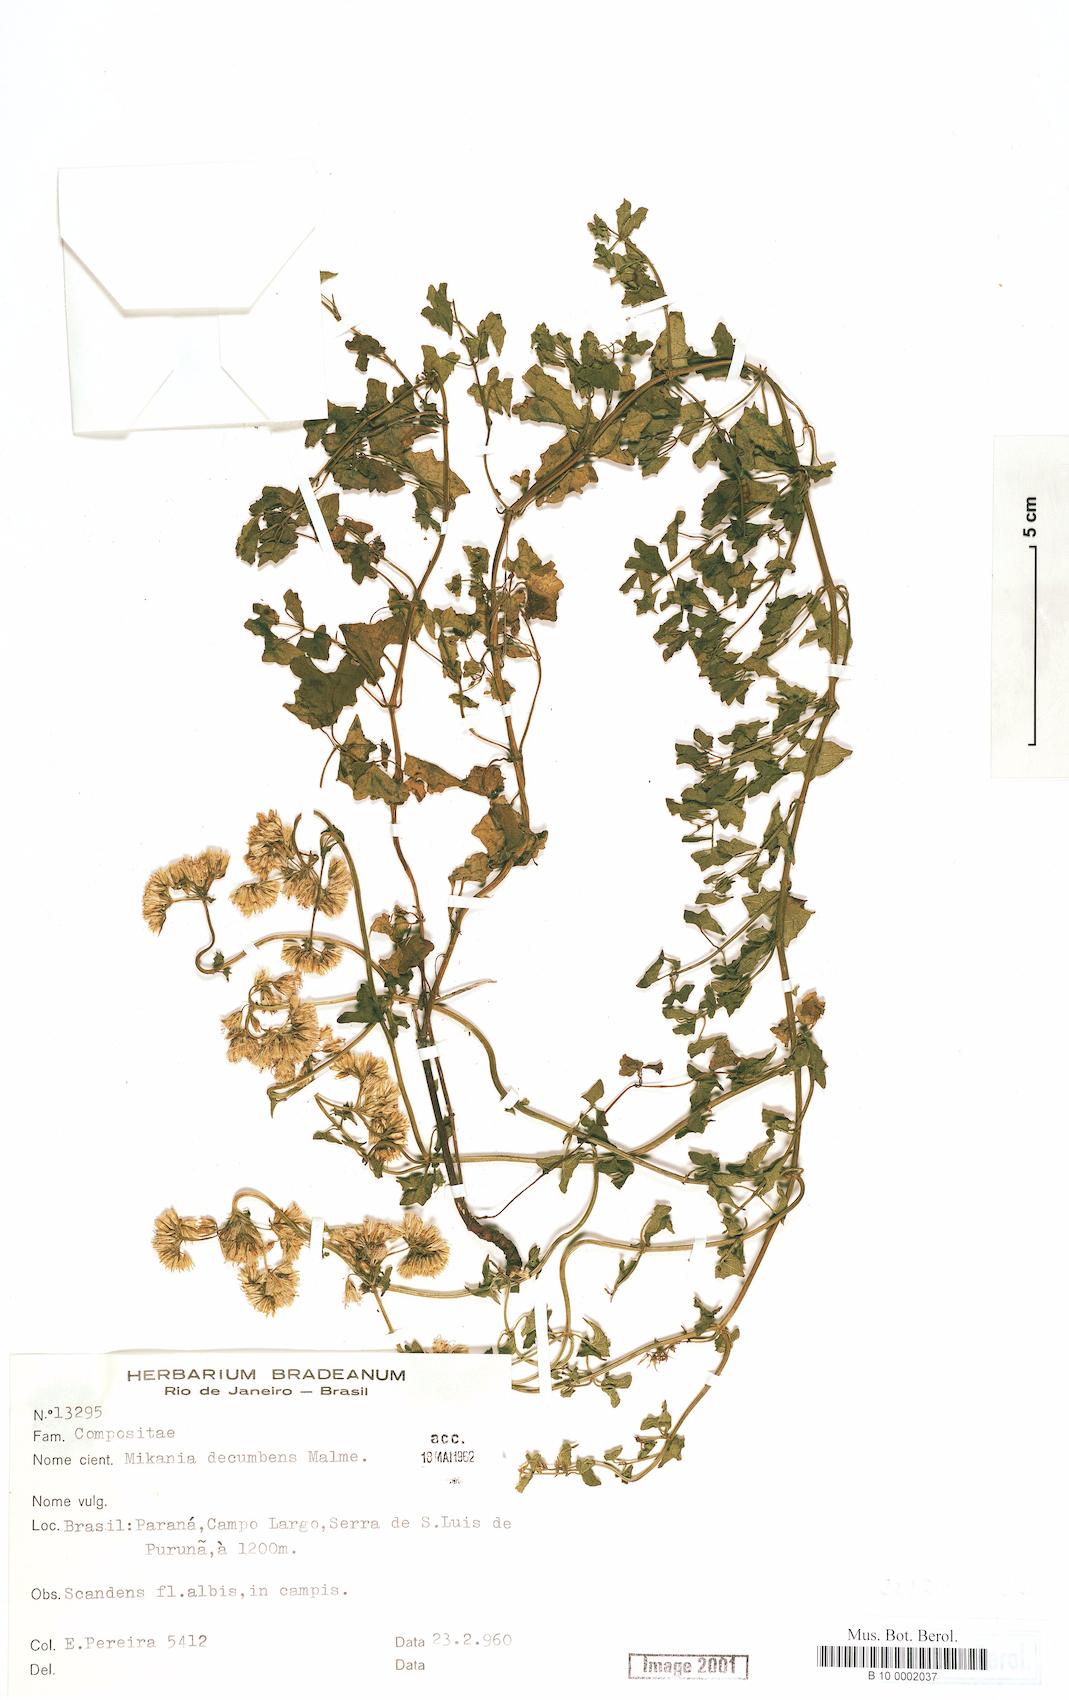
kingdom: Plantae
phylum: Tracheophyta
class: Magnoliopsida
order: Asterales
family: Asteraceae
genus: Mikania
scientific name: Mikania decumbens
